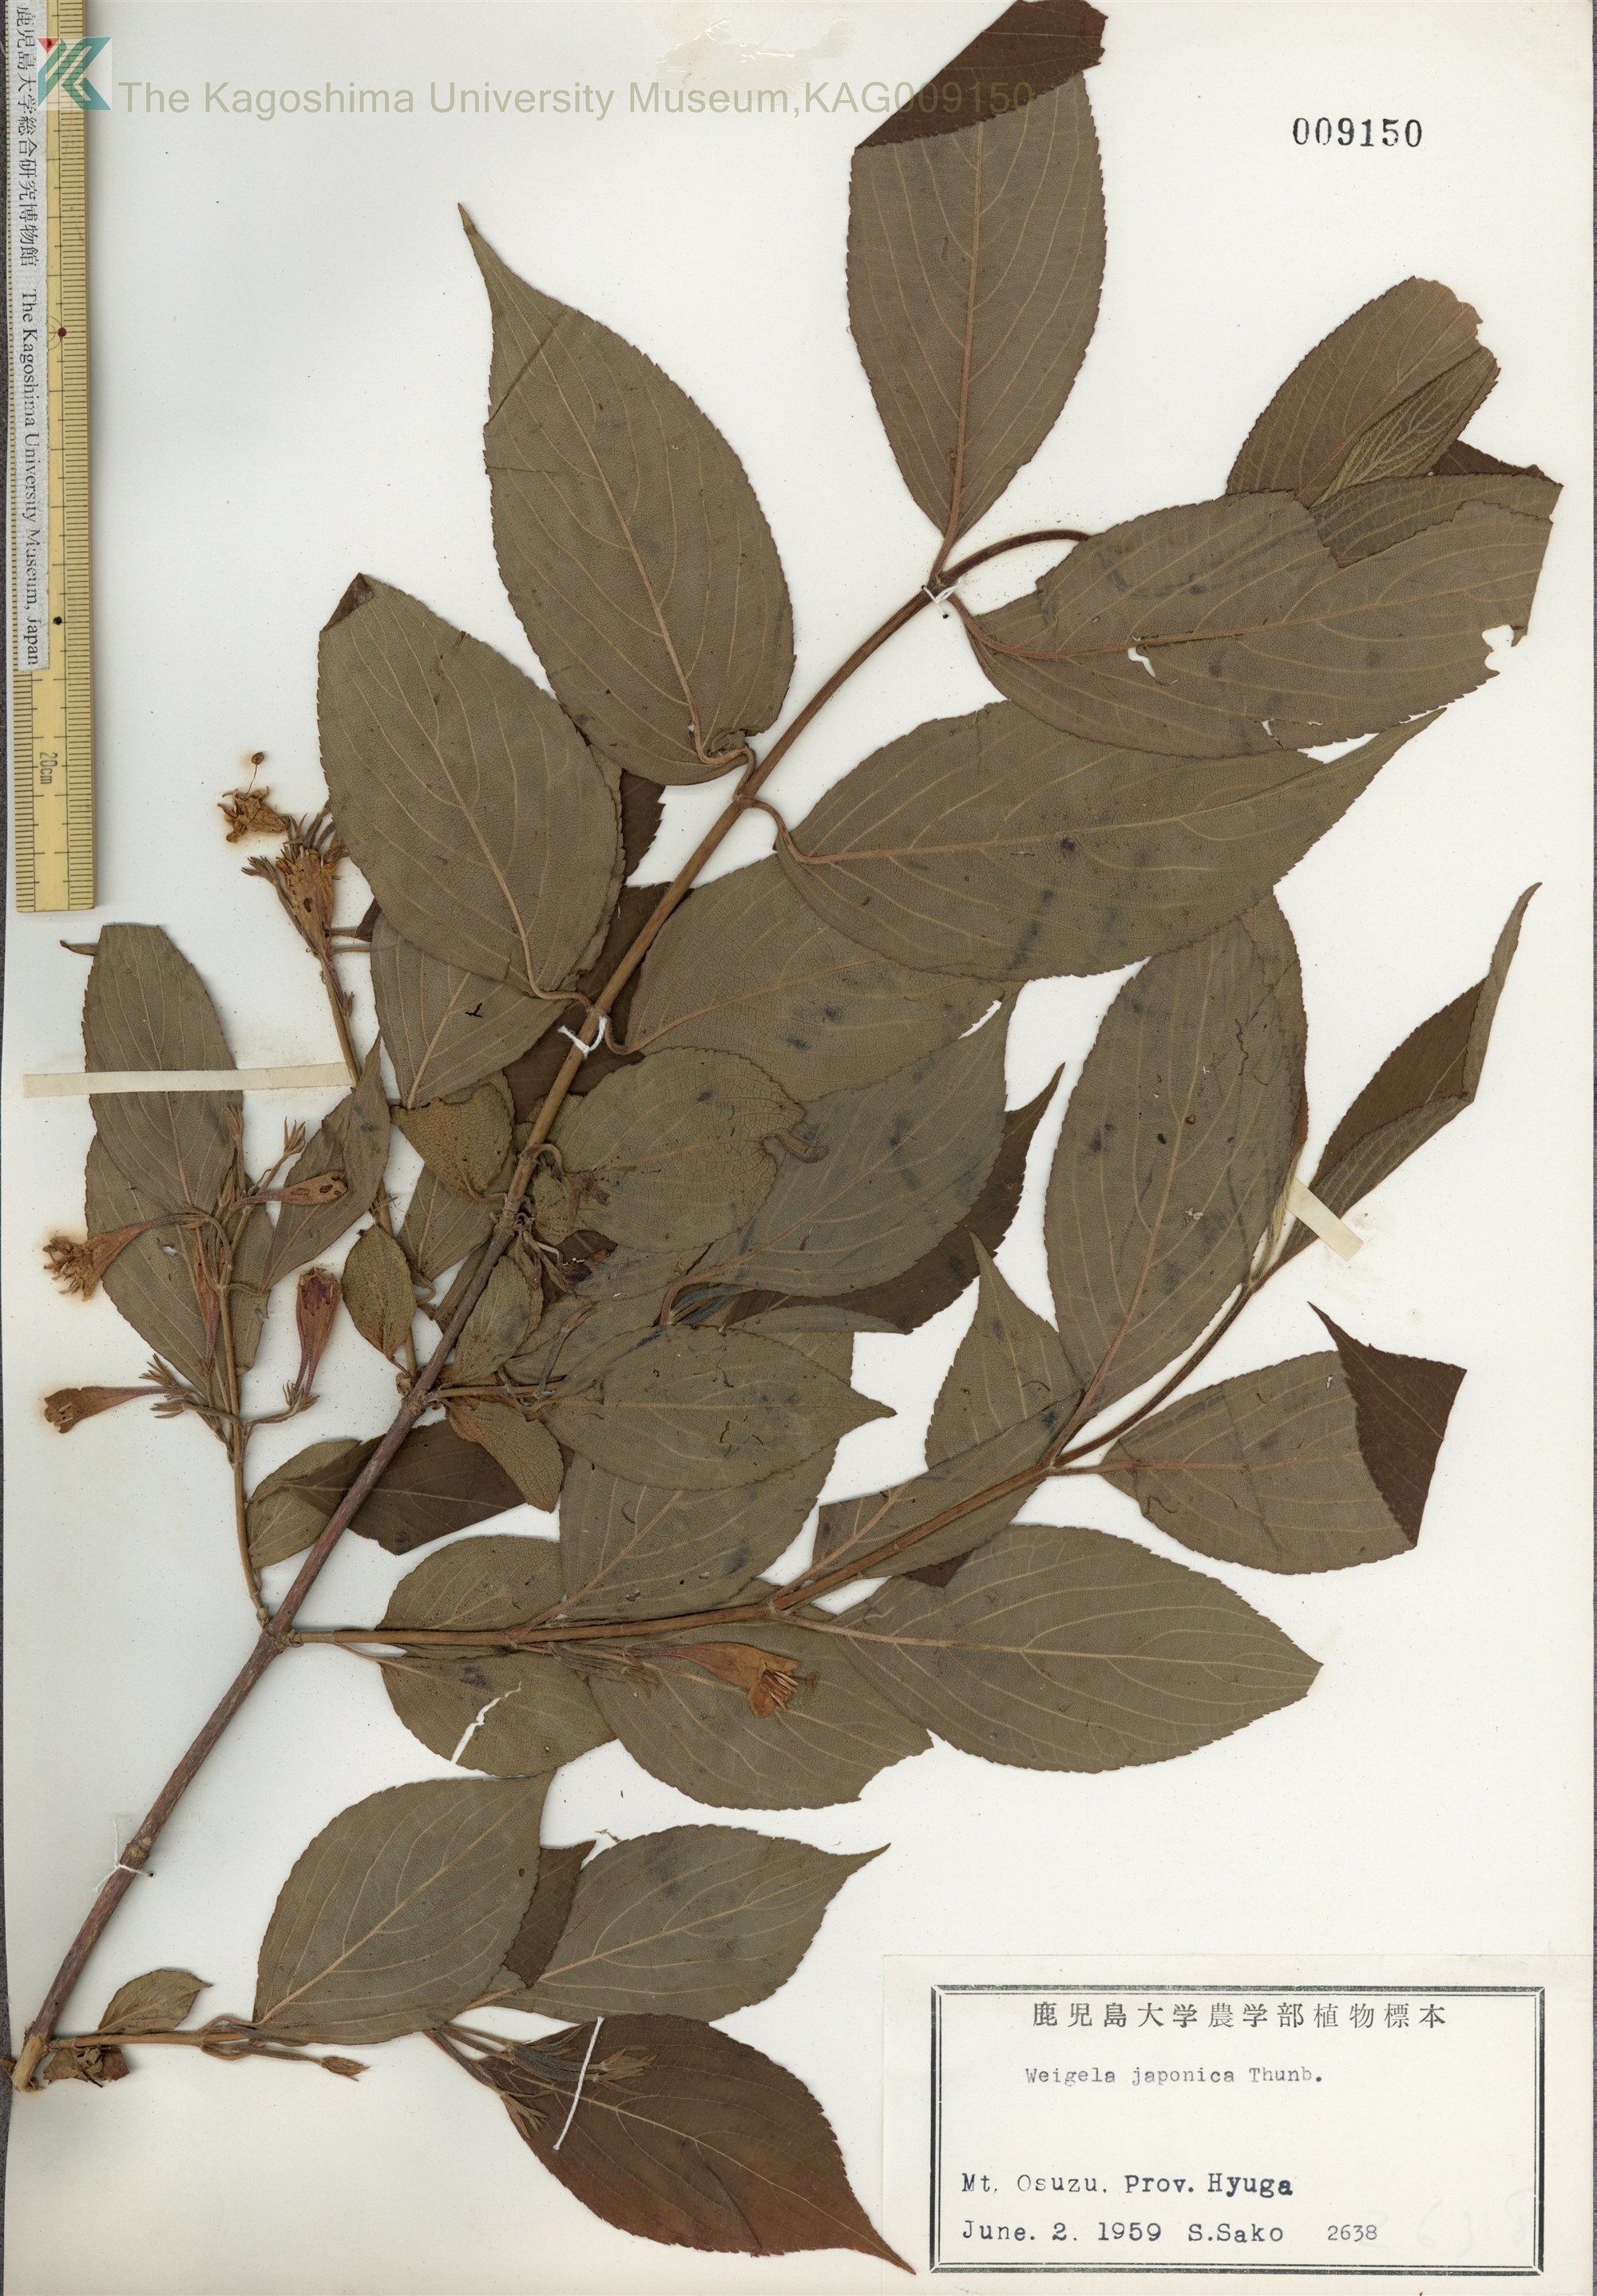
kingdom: Plantae
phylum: Tracheophyta
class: Magnoliopsida
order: Dipsacales
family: Caprifoliaceae
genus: Weigela
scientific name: Weigela japonica
